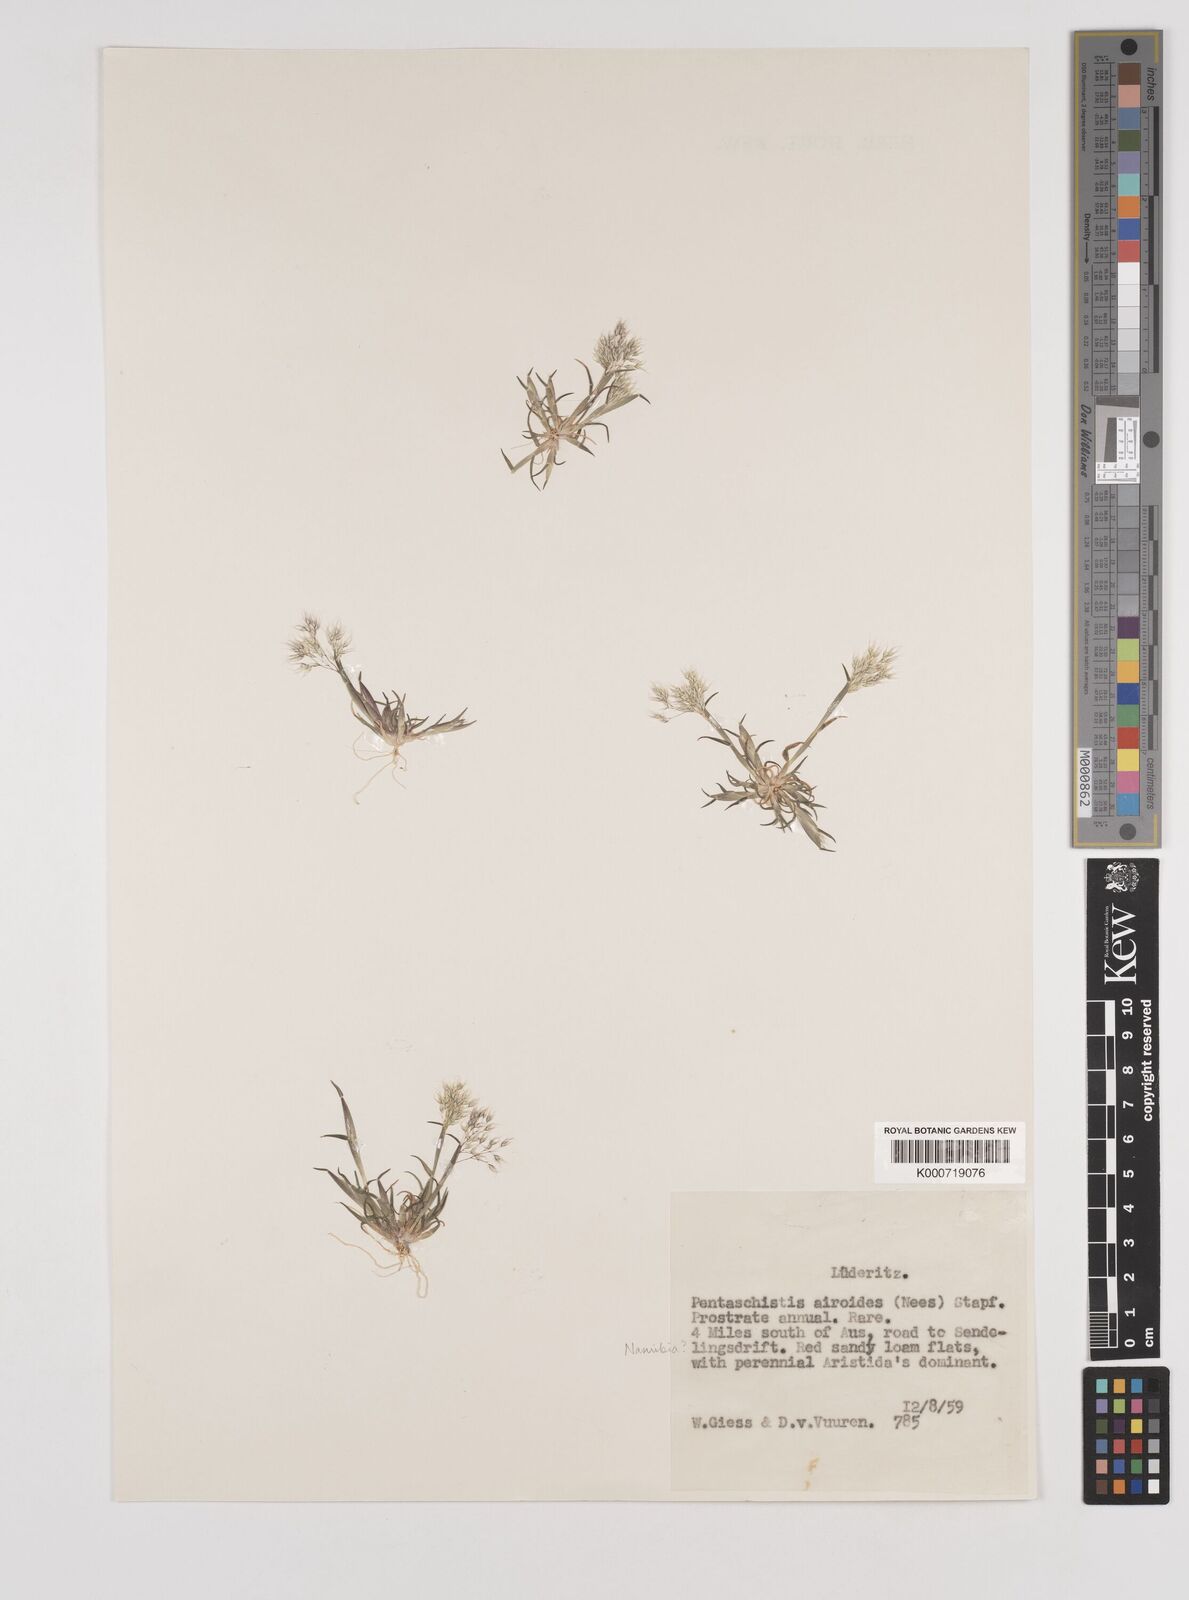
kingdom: Plantae
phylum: Tracheophyta
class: Liliopsida
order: Poales
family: Poaceae
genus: Pentameris
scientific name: Pentameris airoides
